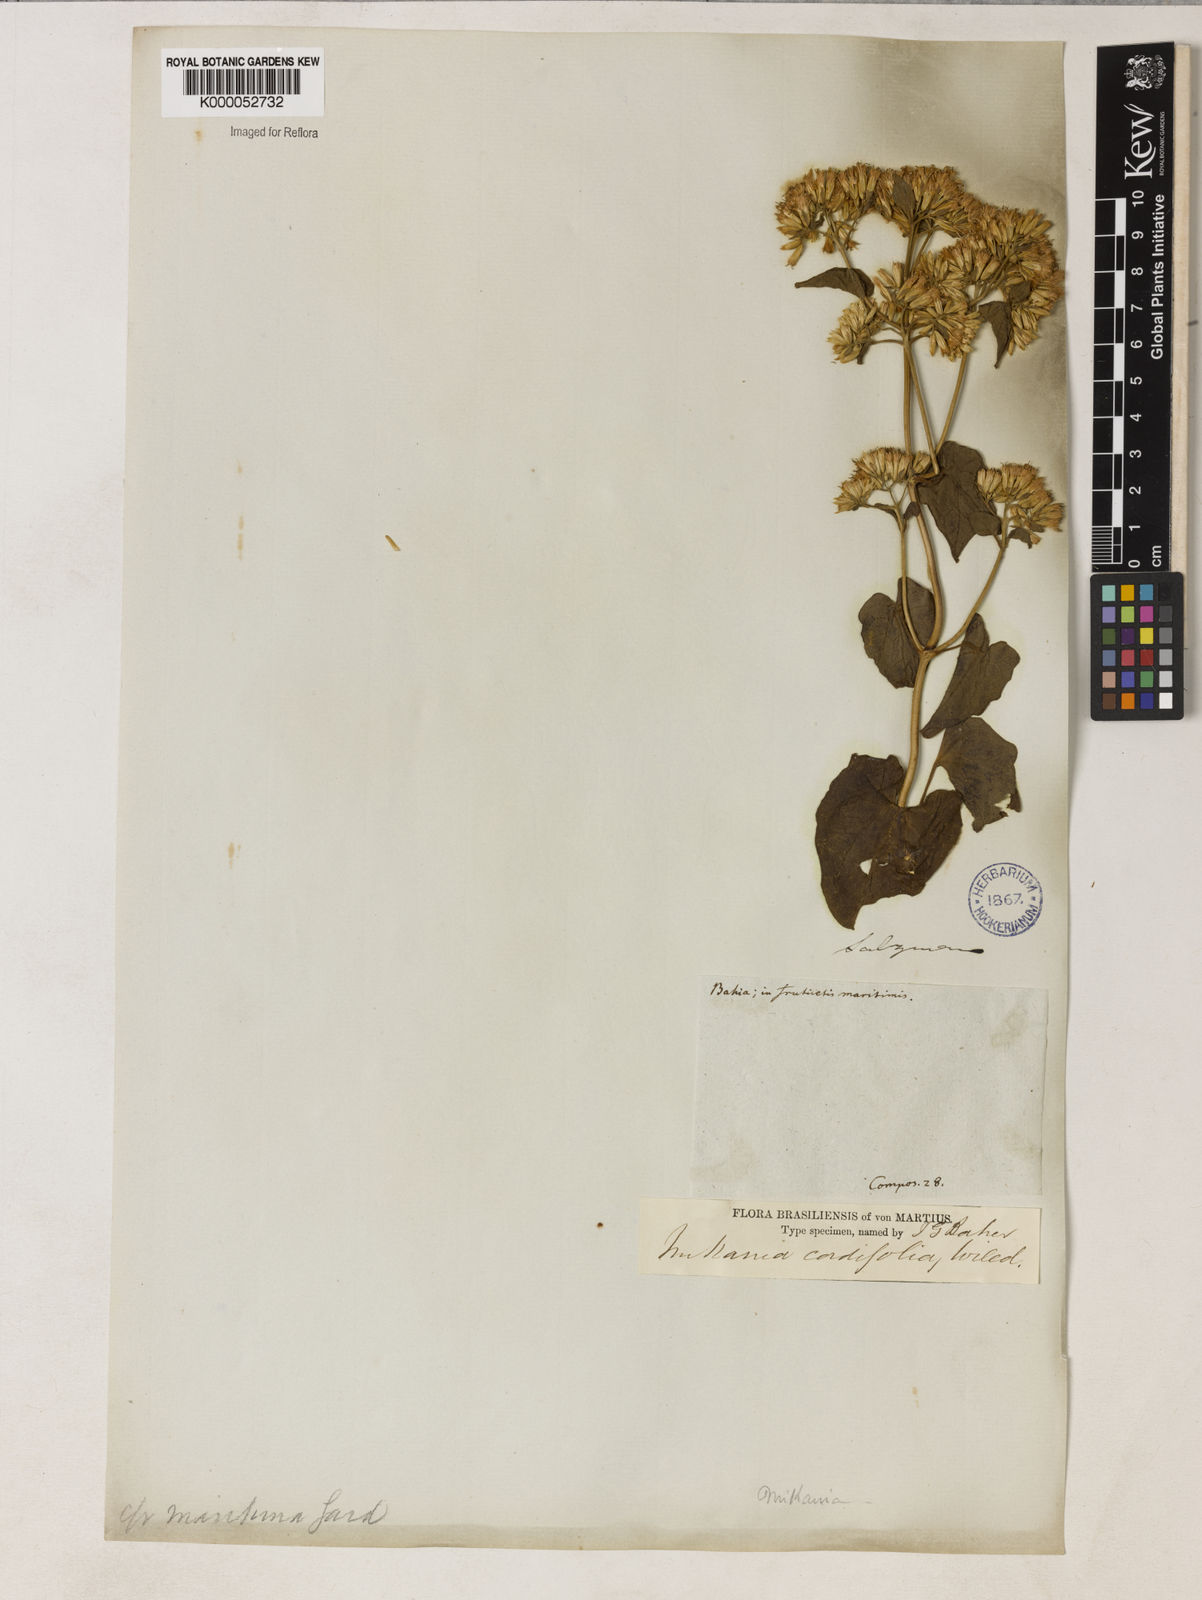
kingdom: Plantae
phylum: Tracheophyta
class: Magnoliopsida
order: Asterales
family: Asteraceae
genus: Mikania
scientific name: Mikania cordifolia
